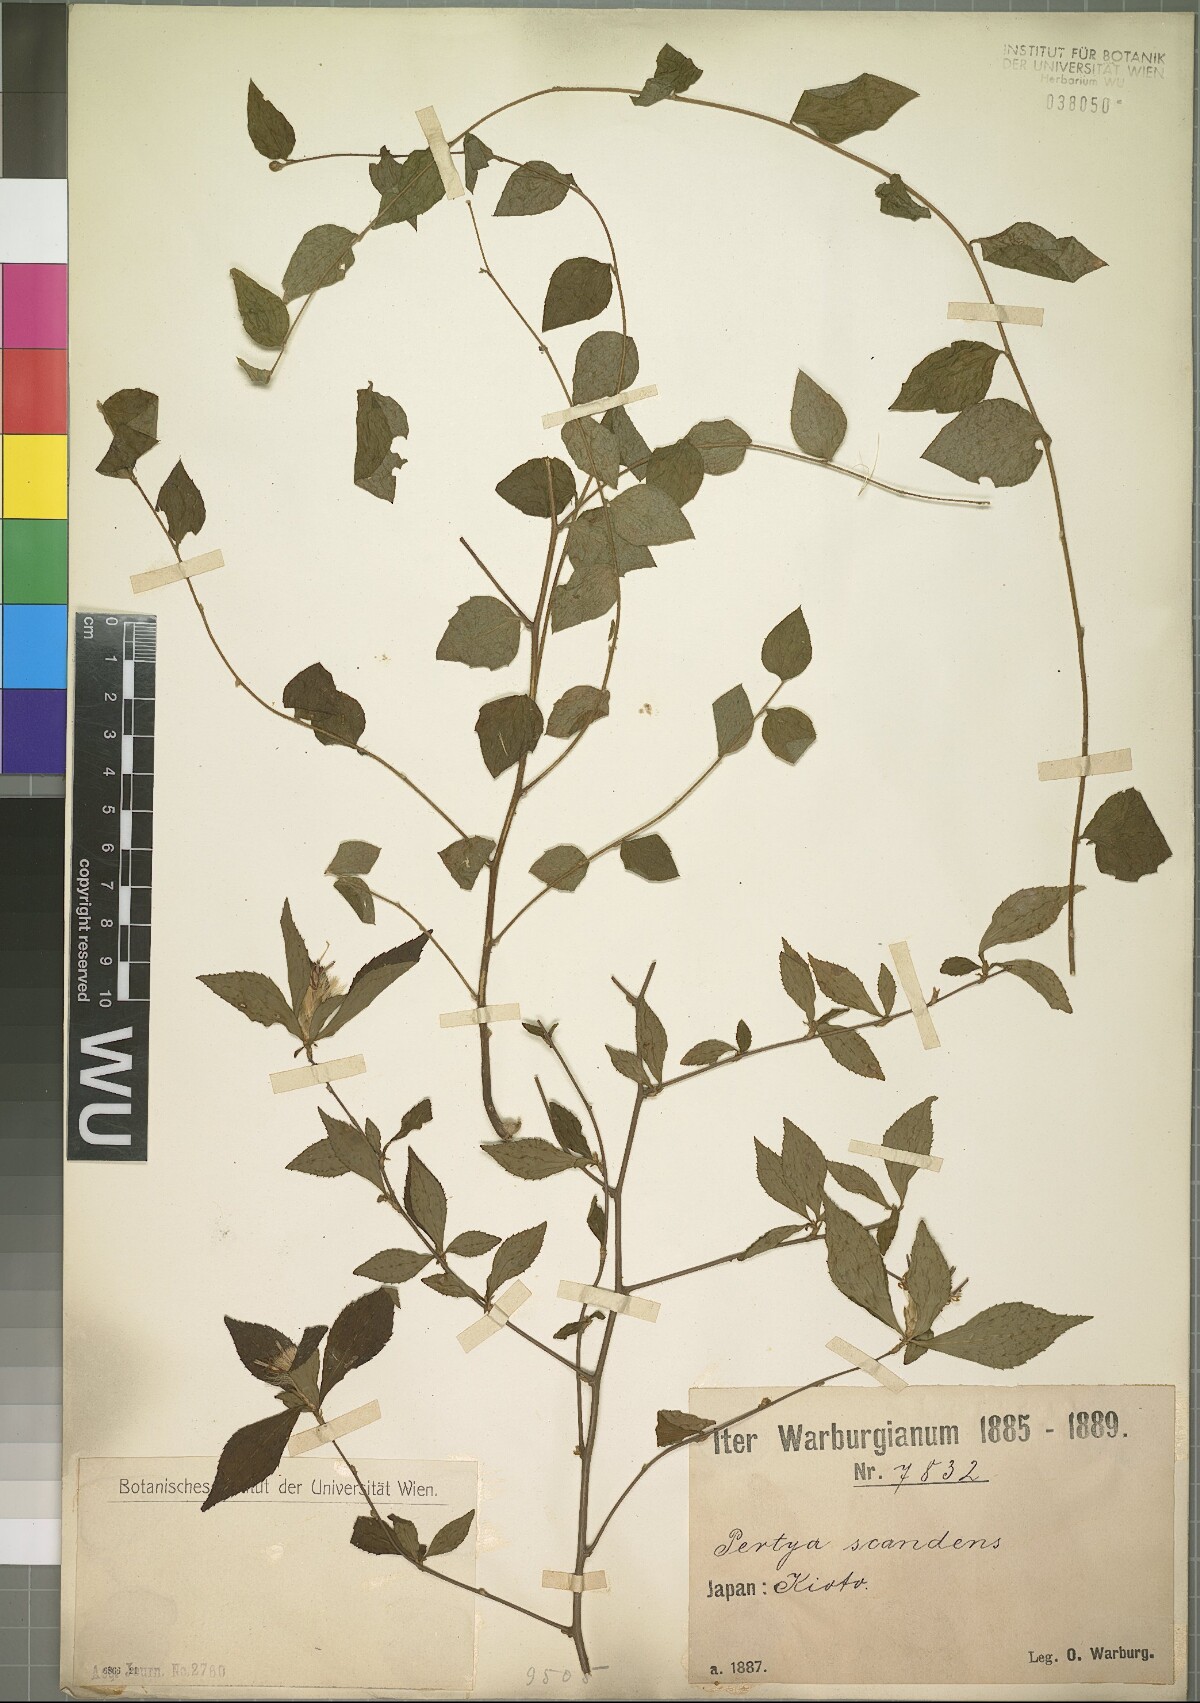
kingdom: Plantae
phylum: Tracheophyta
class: Magnoliopsida
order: Asterales
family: Asteraceae
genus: Pertya
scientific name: Pertya glabrescens
